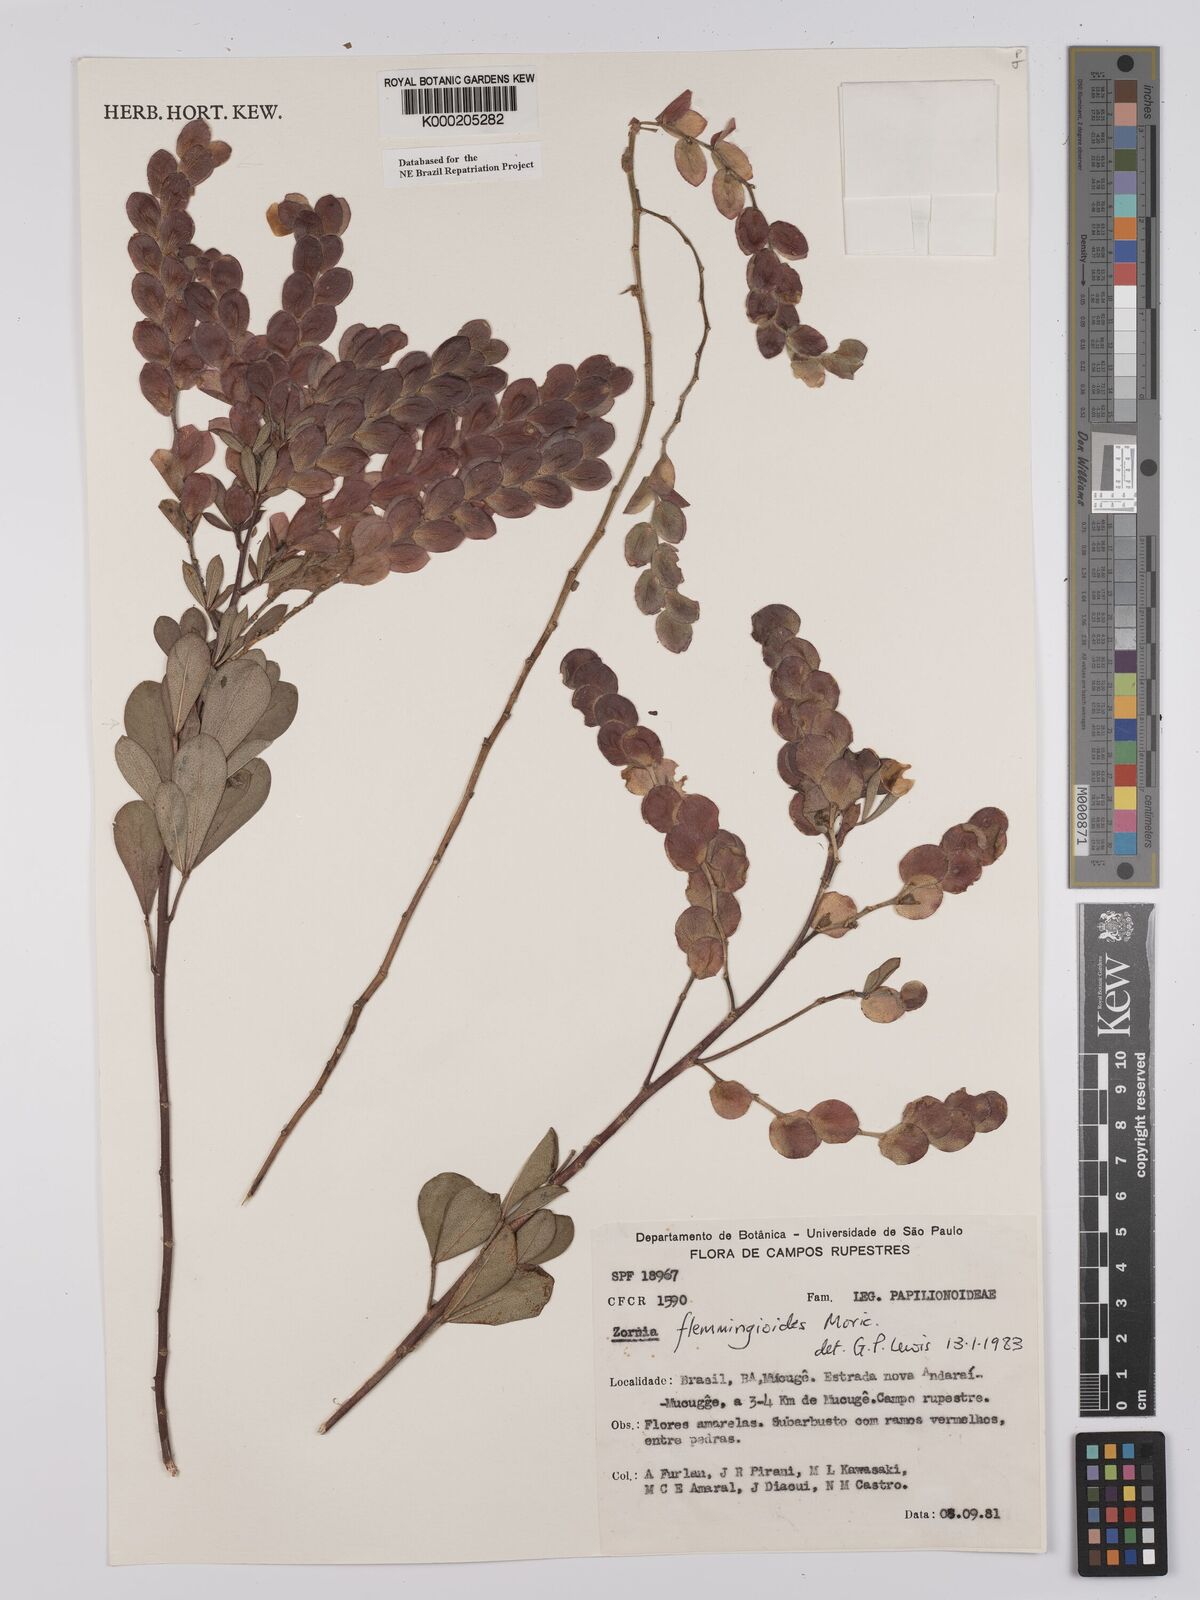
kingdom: Plantae
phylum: Tracheophyta
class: Magnoliopsida
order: Fabales
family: Fabaceae
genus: Zornia
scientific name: Zornia flemmingioides
